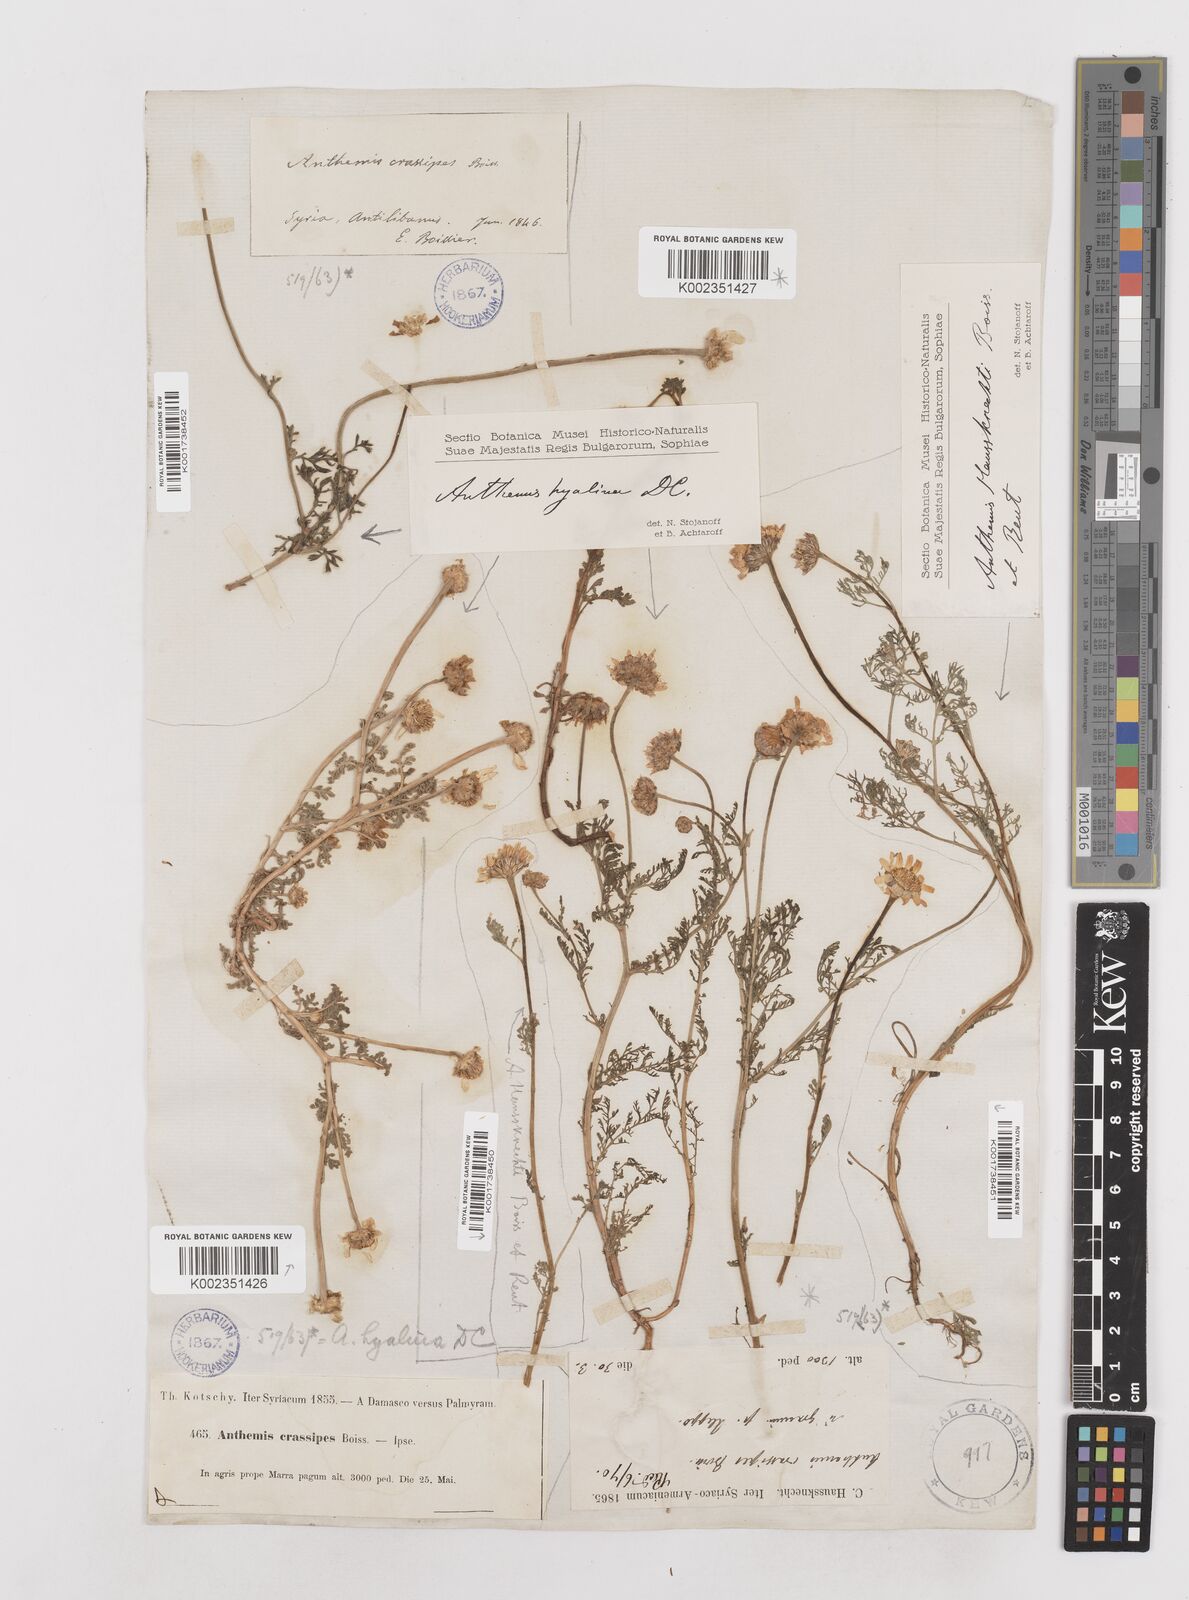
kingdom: Plantae
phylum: Tracheophyta
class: Magnoliopsida
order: Asterales
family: Asteraceae
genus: Anthemis
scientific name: Anthemis hyalina
